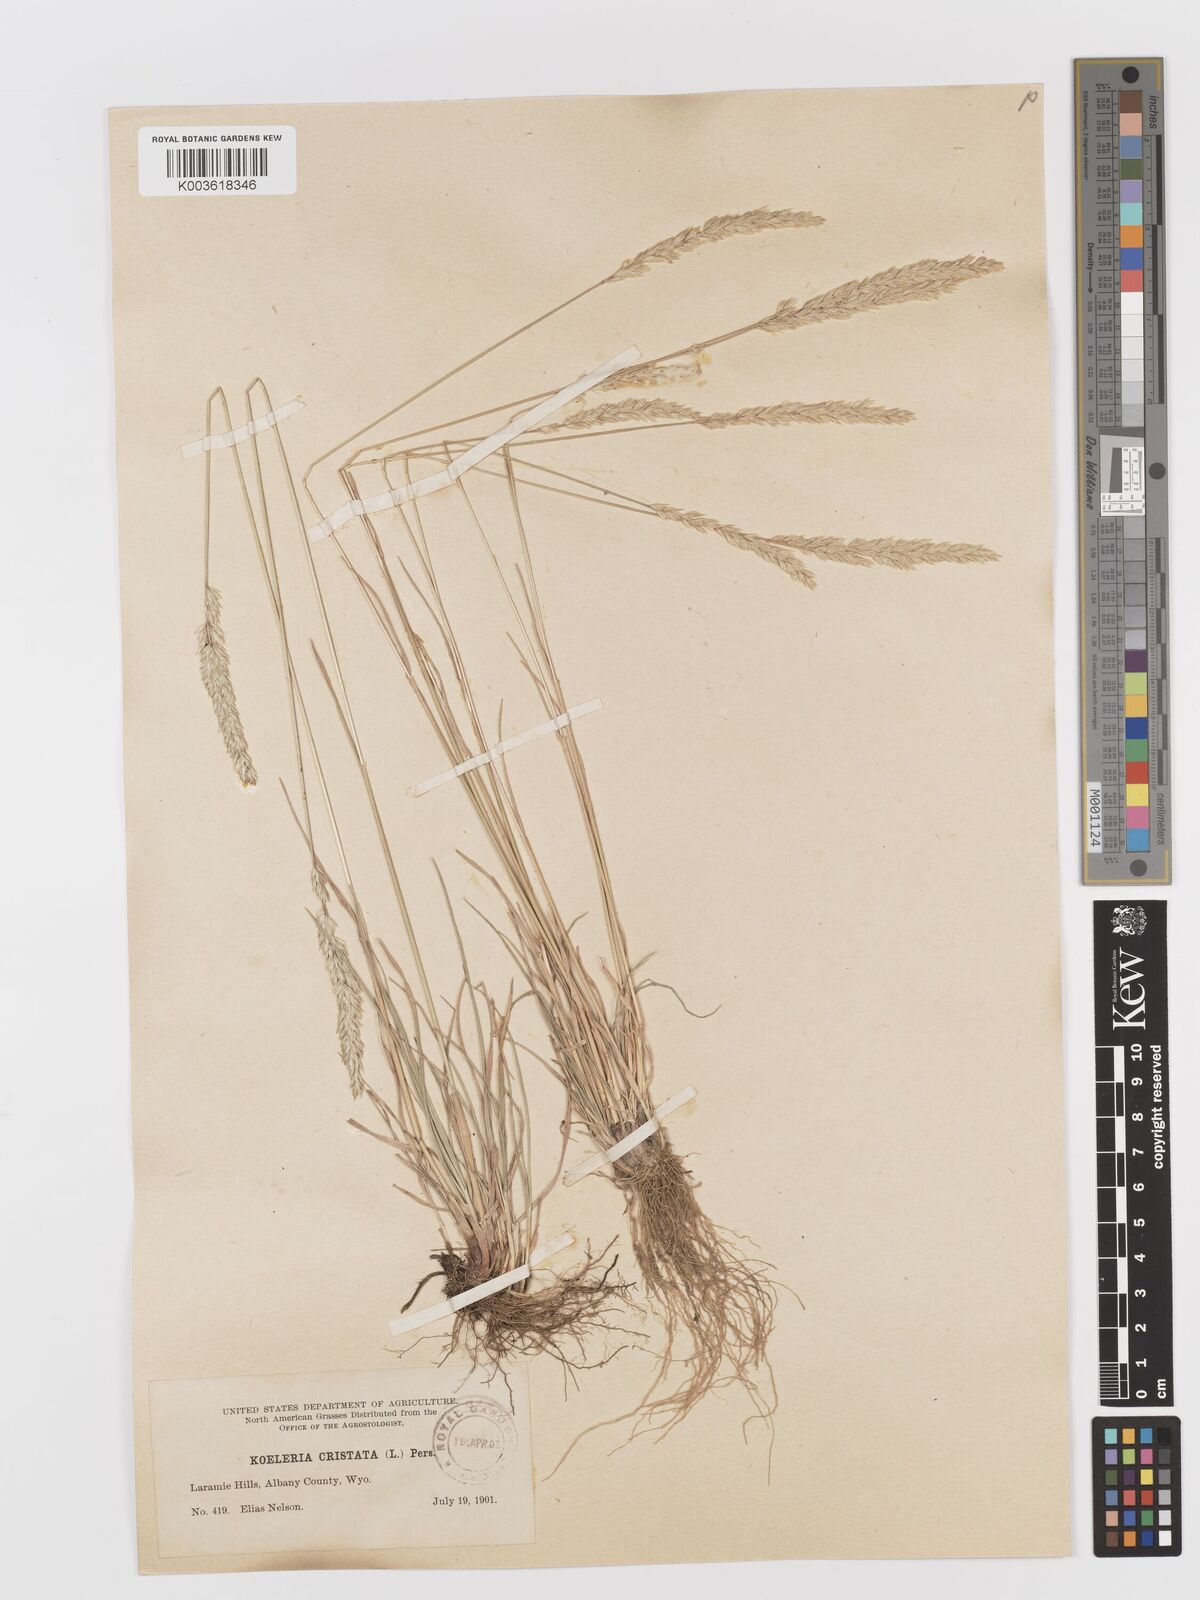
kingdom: Plantae
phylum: Tracheophyta
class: Liliopsida
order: Poales
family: Poaceae
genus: Koeleria
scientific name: Koeleria
